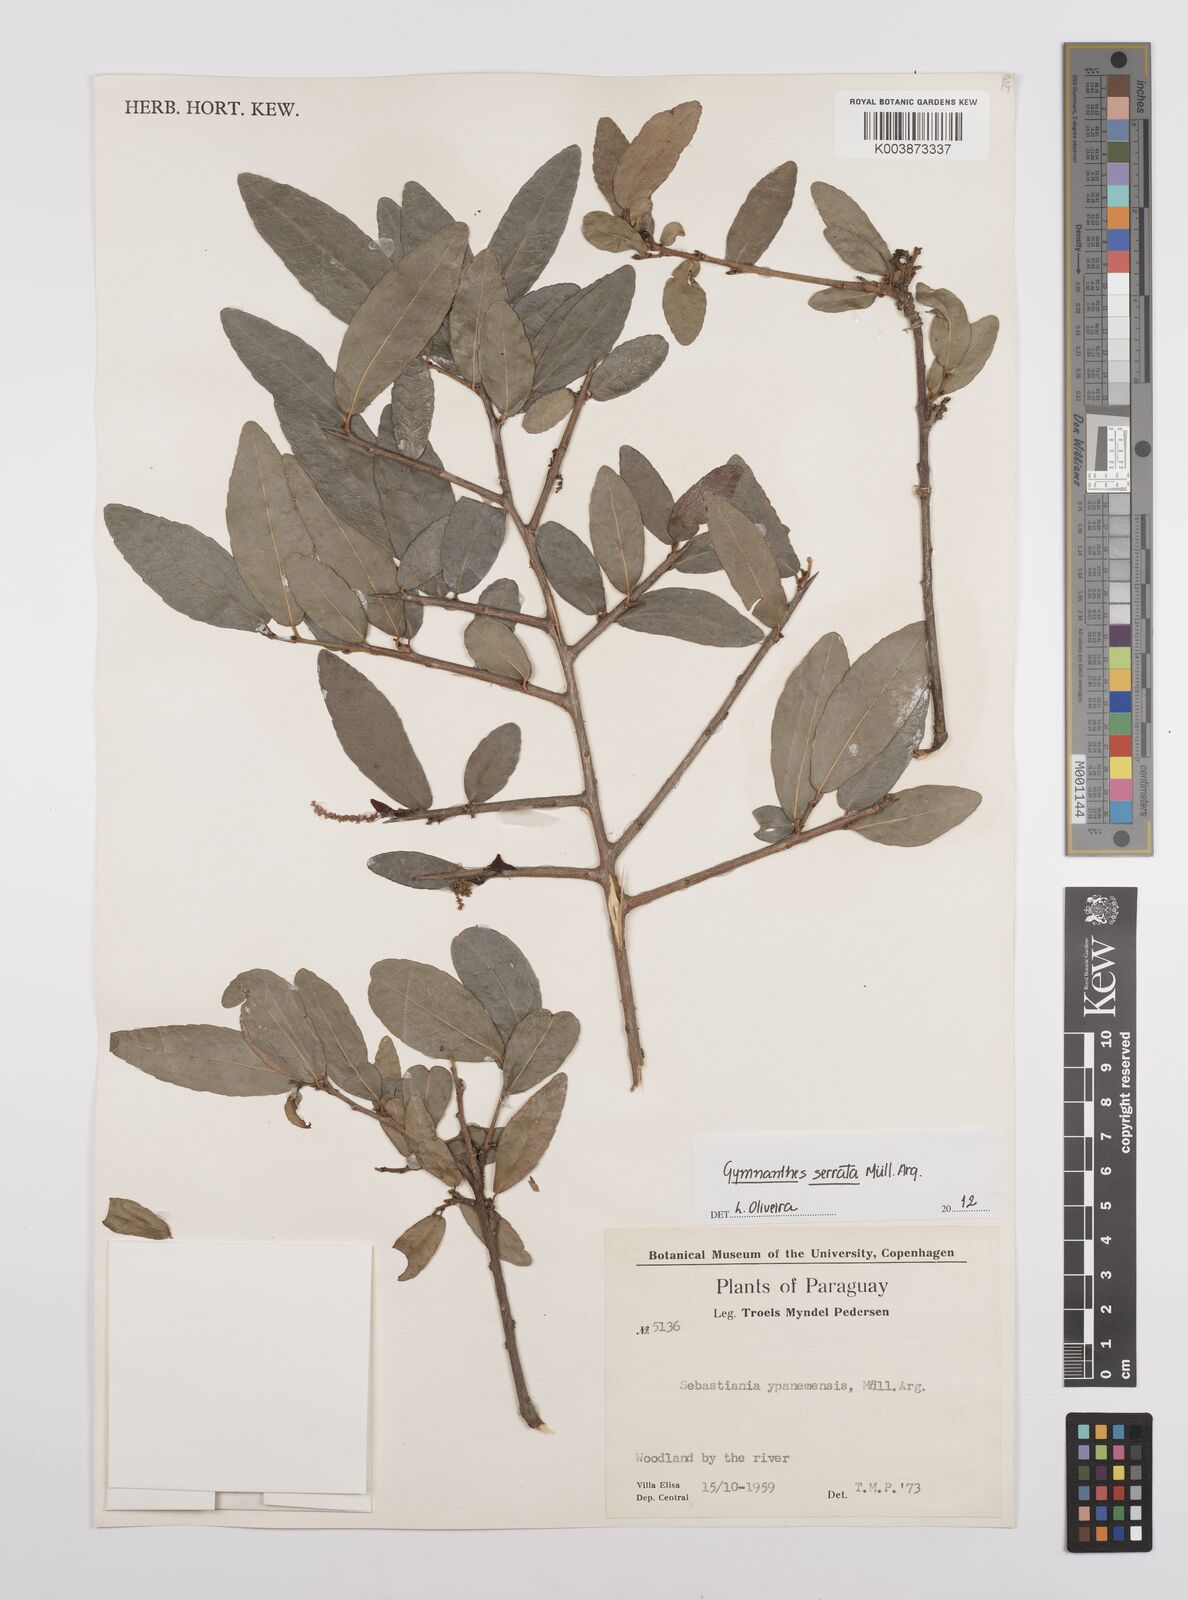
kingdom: Plantae
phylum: Tracheophyta
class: Magnoliopsida
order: Malpighiales
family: Euphorbiaceae
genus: Sebastiania
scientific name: Sebastiania serrata
